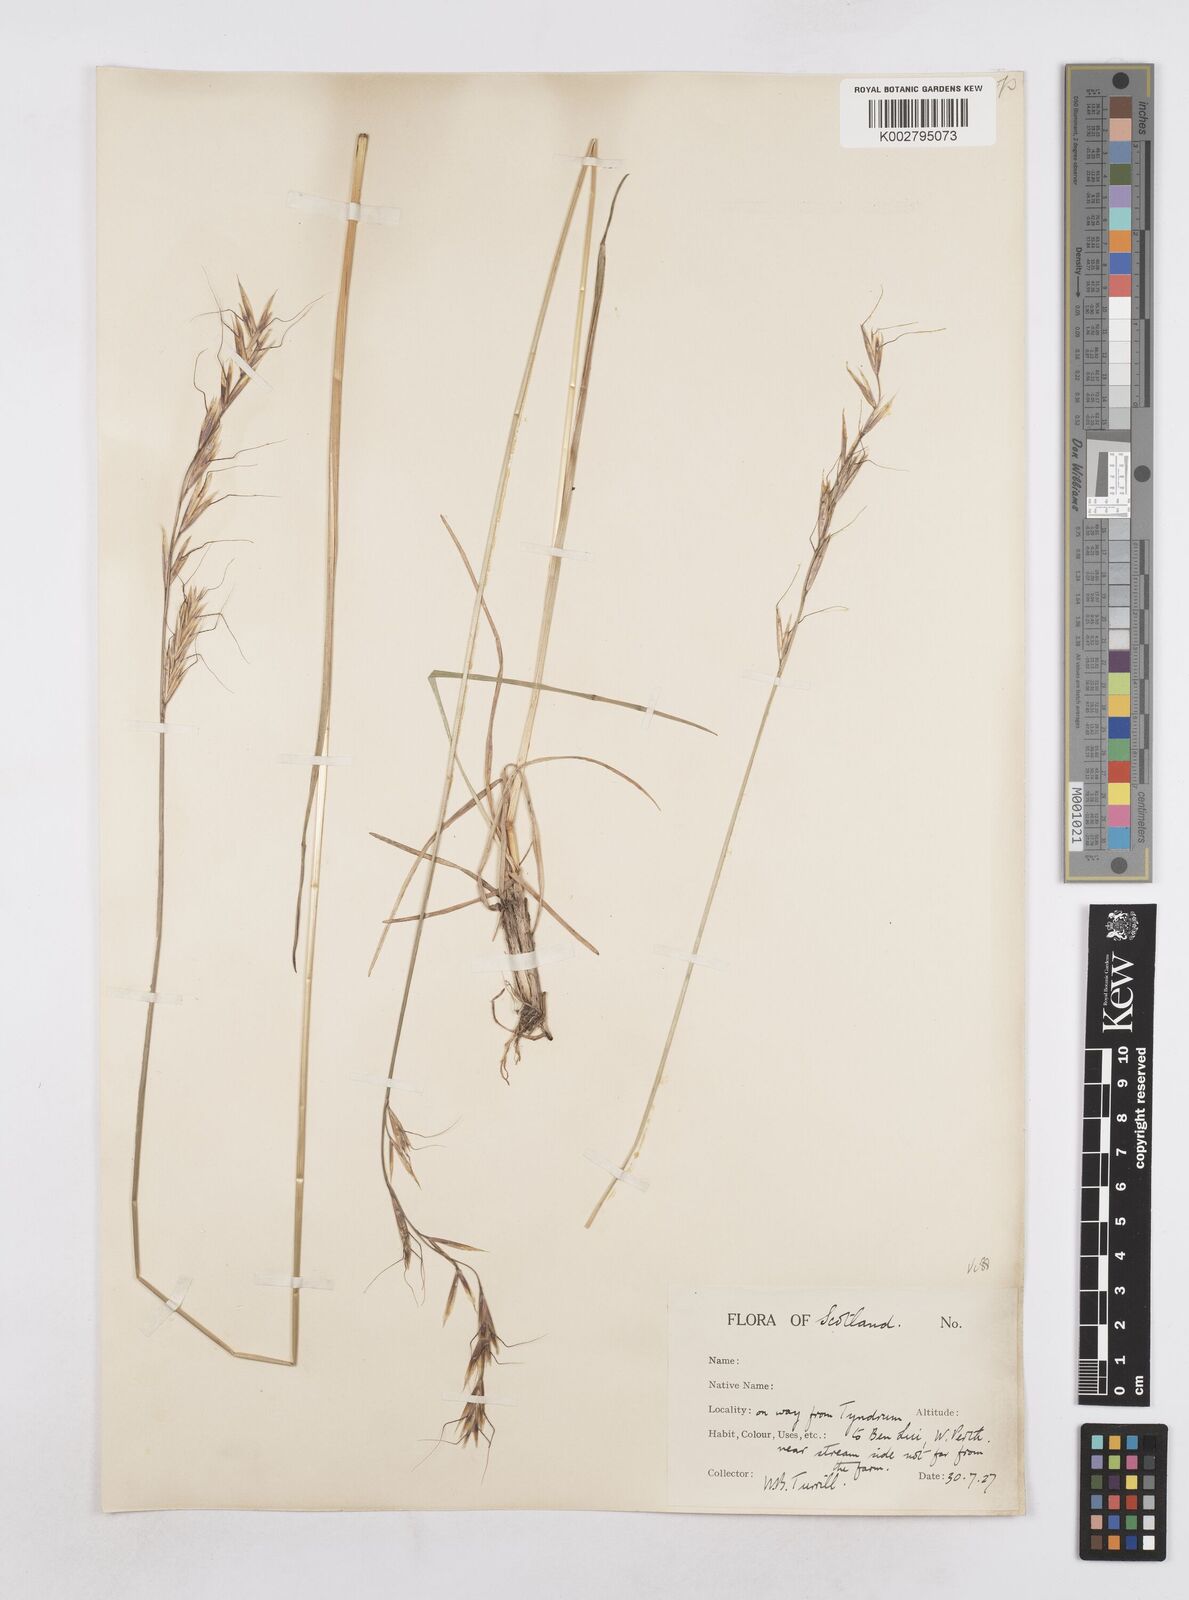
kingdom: Plantae
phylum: Tracheophyta
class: Liliopsida
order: Poales
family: Poaceae
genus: Helictotrichon
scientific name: Helictotrichon
